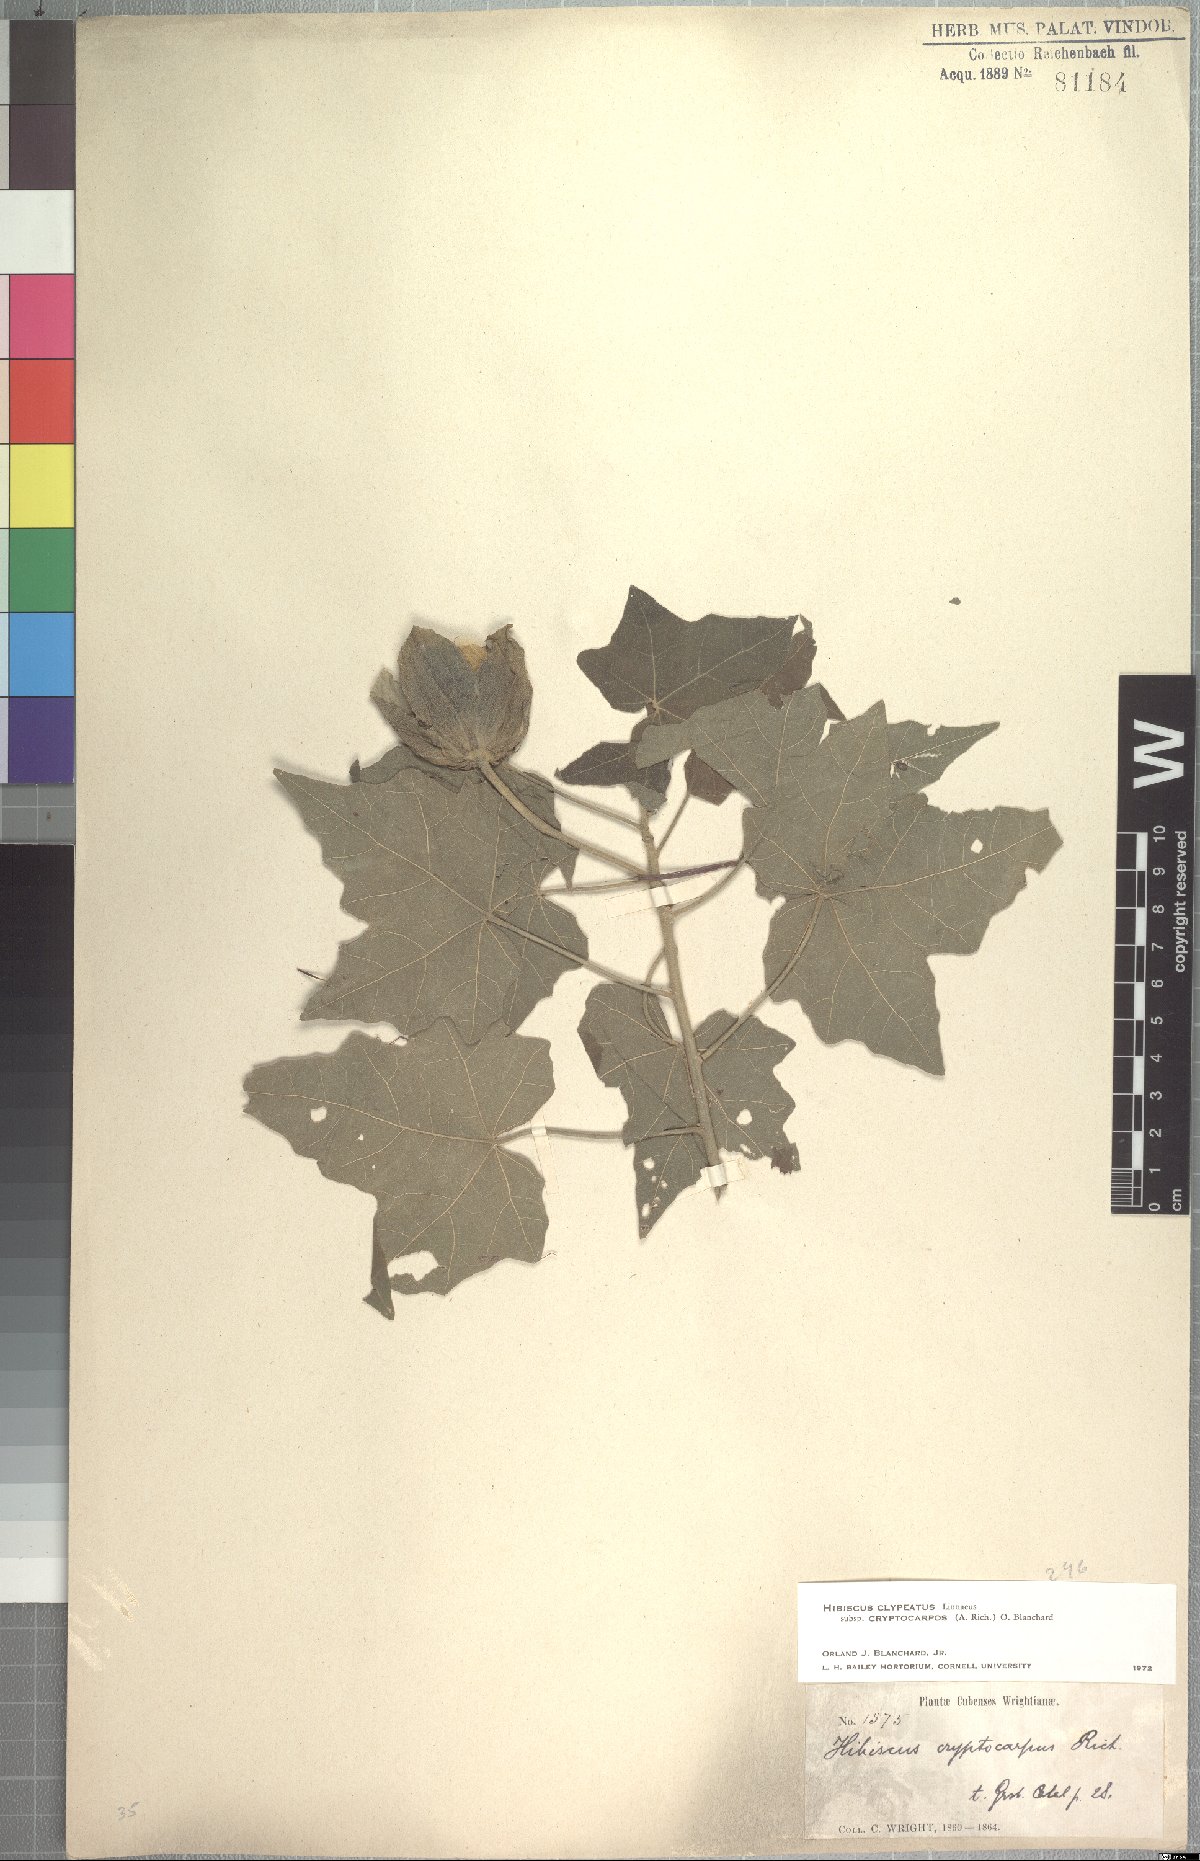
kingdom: Plantae
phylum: Tracheophyta
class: Magnoliopsida
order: Malvales
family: Malvaceae
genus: Hibiscus
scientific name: Hibiscus clypeatus
